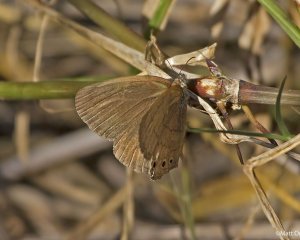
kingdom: Animalia
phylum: Arthropoda
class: Insecta
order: Lepidoptera
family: Nymphalidae
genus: Hermeuptychia
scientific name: Hermeuptychia hermes
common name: Carolina Satyr
